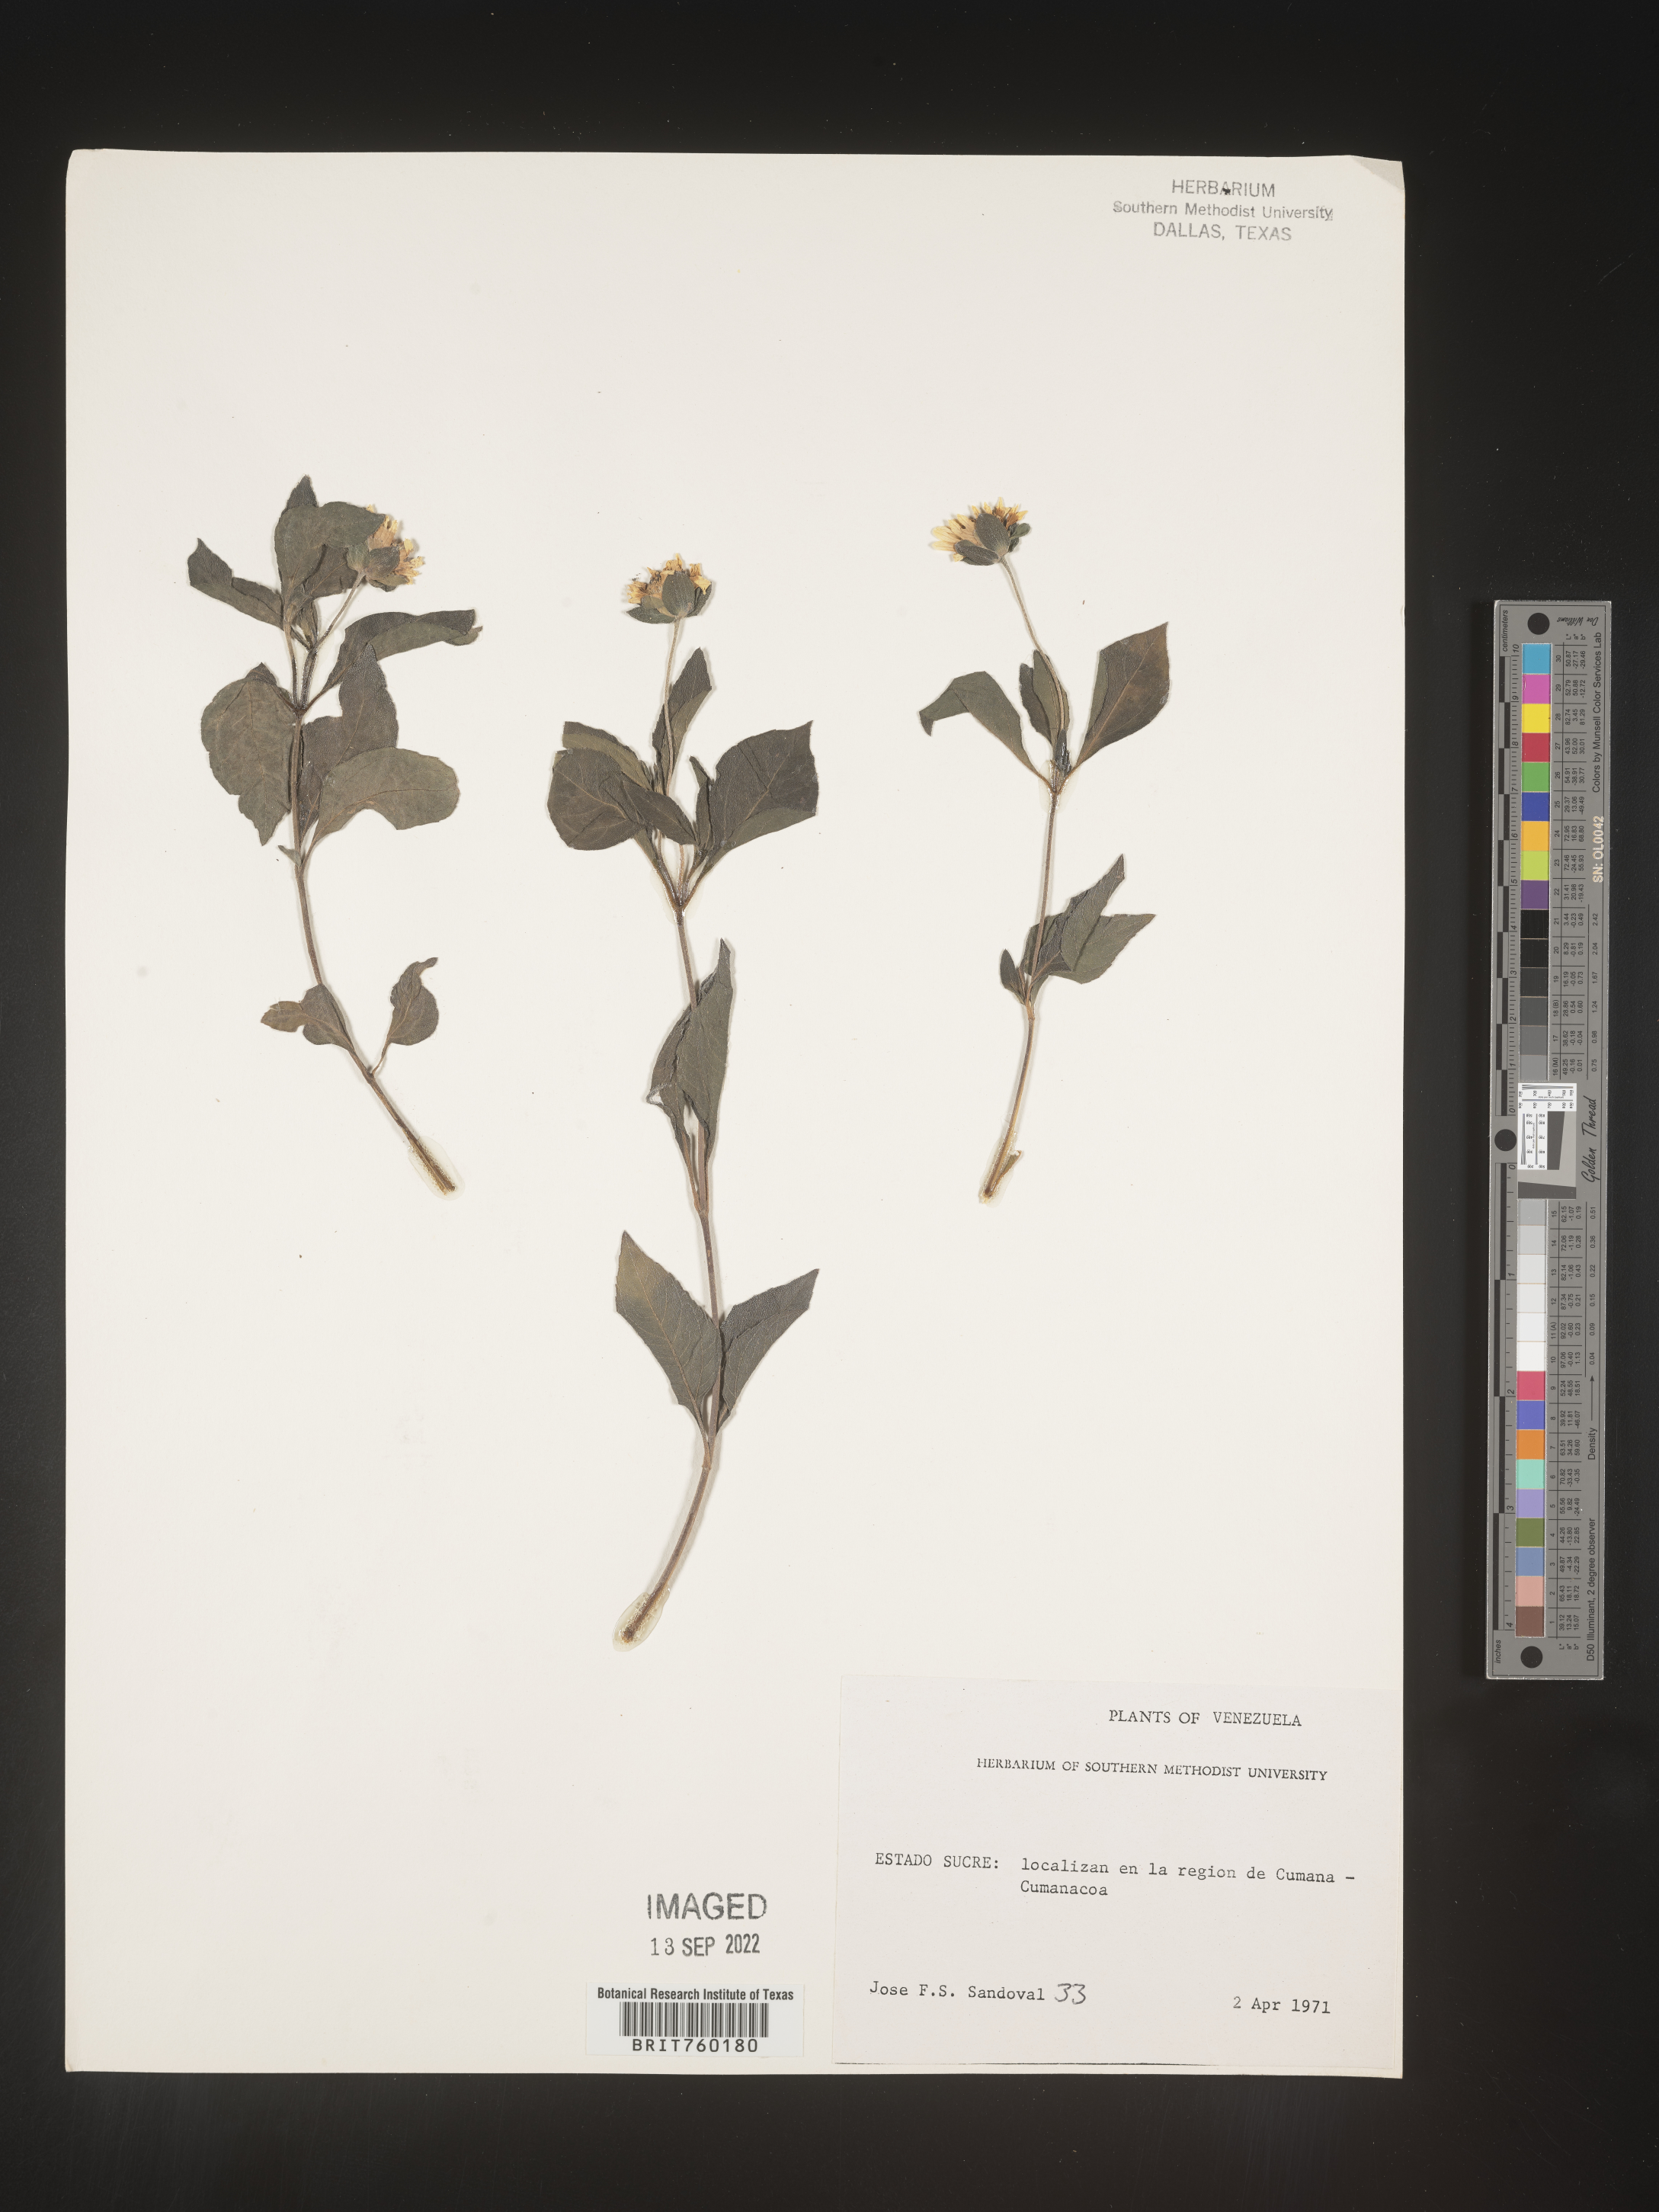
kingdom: Plantae
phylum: Tracheophyta
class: Magnoliopsida
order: Asterales
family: Asteraceae
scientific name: Asteraceae
